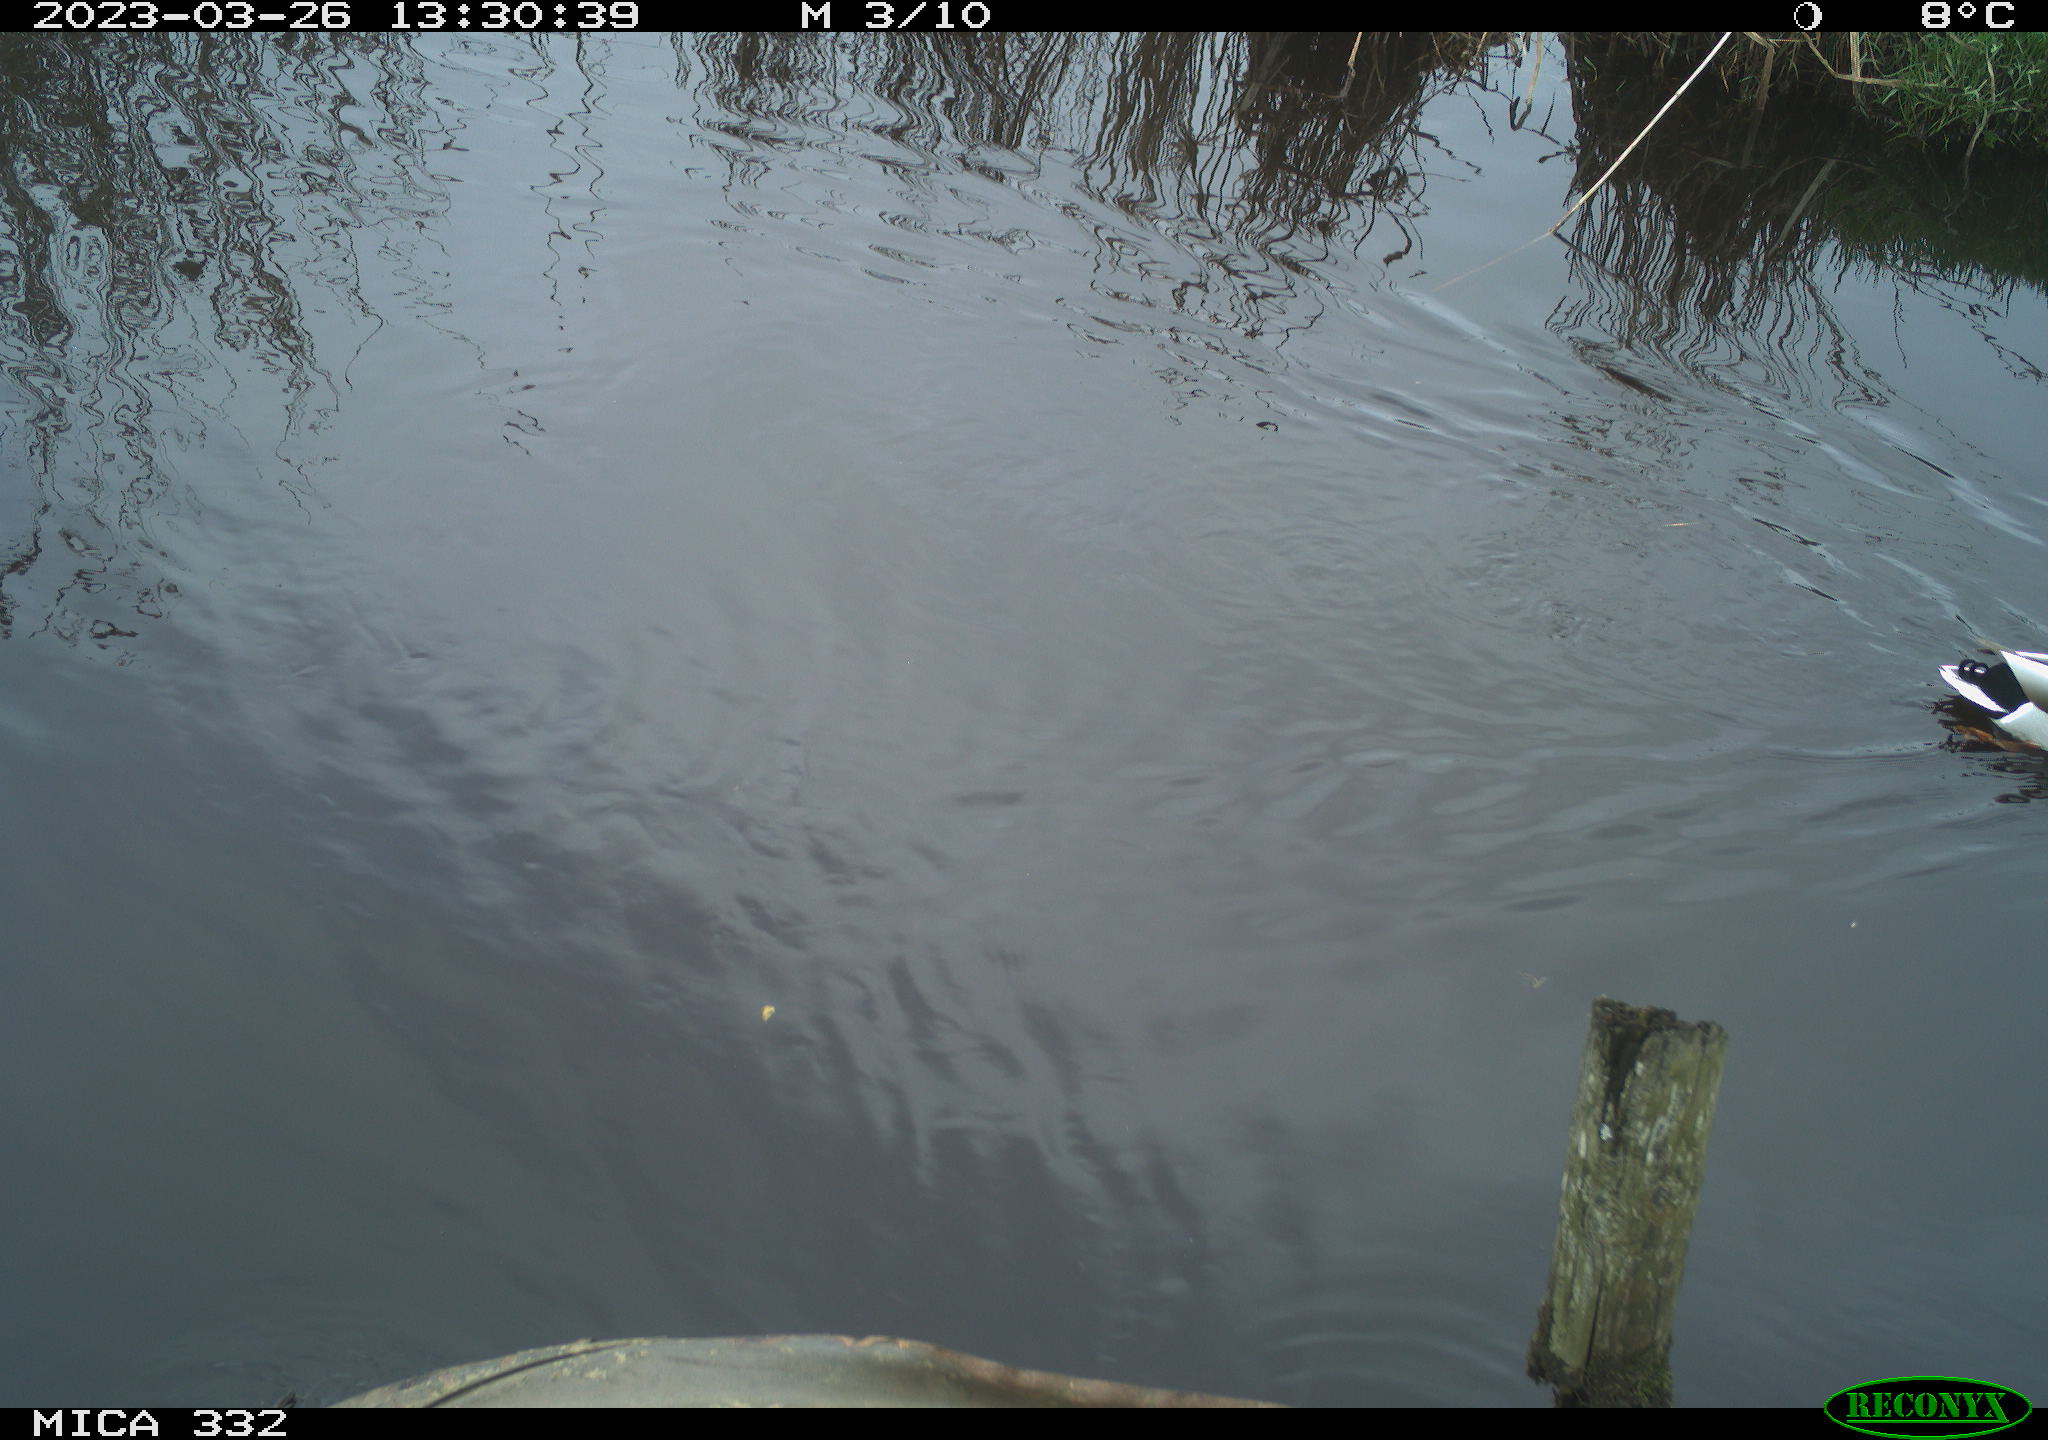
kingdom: Animalia
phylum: Chordata
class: Aves
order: Anseriformes
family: Anatidae
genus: Anas
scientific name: Anas
